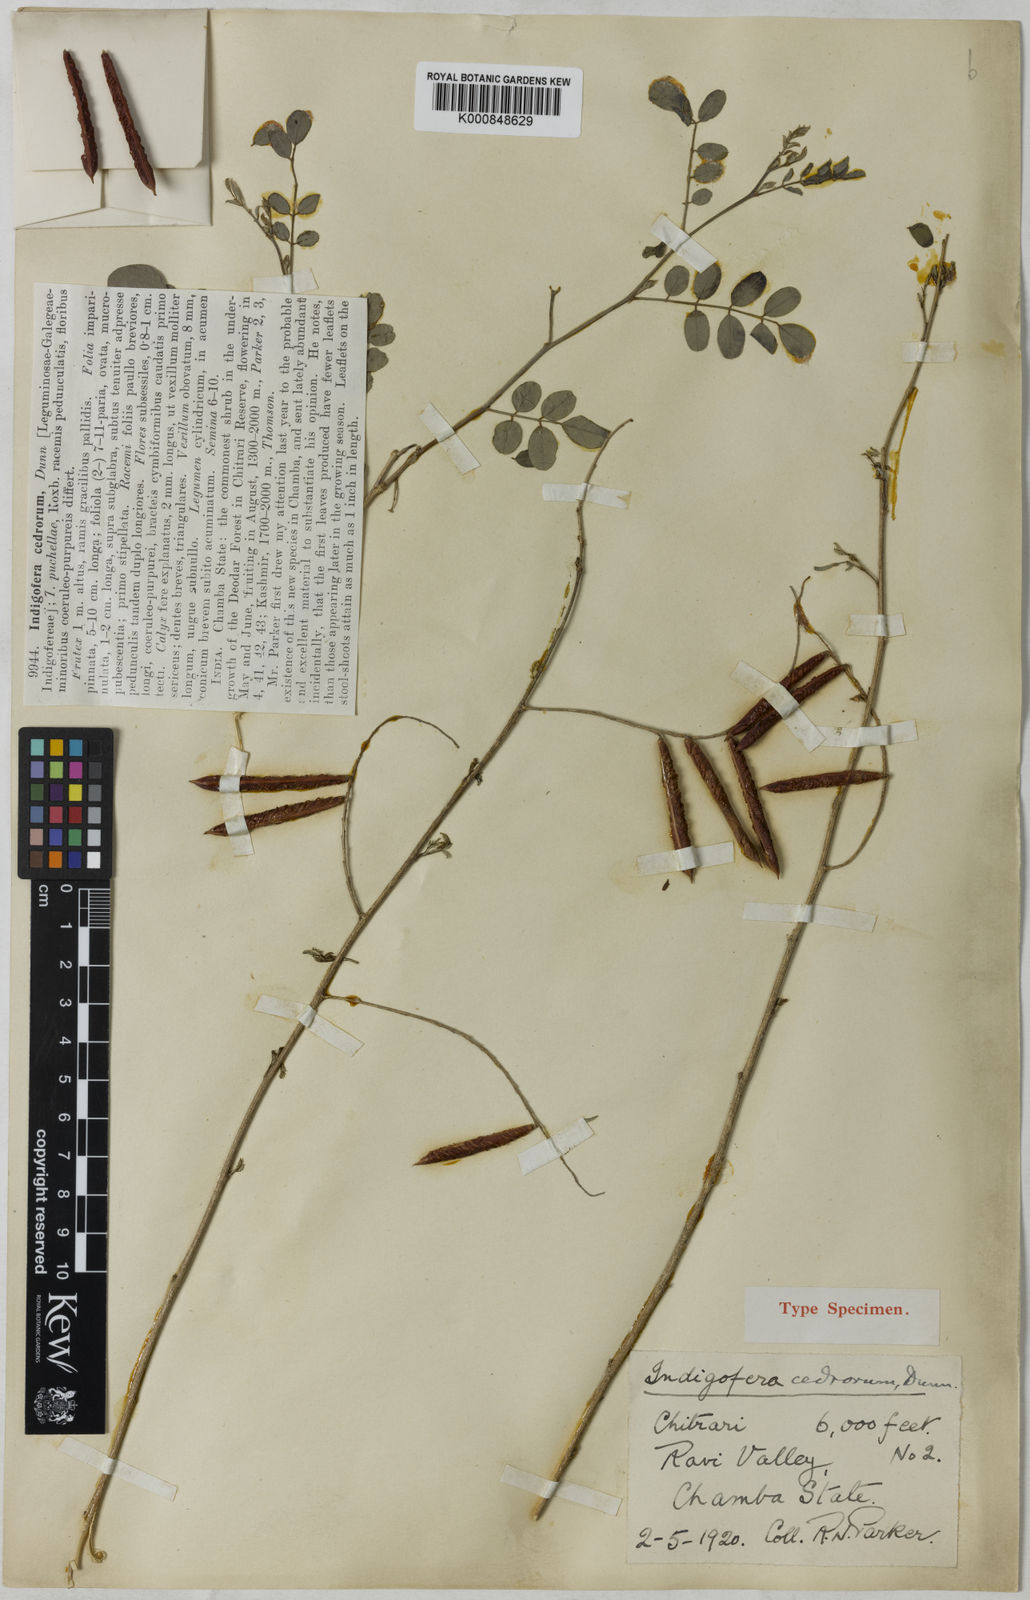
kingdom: Plantae
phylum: Tracheophyta
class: Magnoliopsida
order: Fabales
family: Fabaceae
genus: Indigofera
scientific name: Indigofera cedrorum
